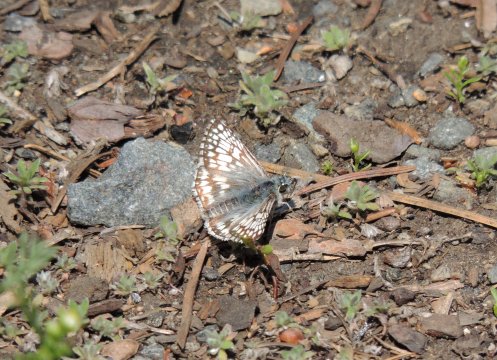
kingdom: Animalia
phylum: Arthropoda
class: Insecta
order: Lepidoptera
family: Hesperiidae
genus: Pyrgus
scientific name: Pyrgus communis
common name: Common Checkered-Skipper
